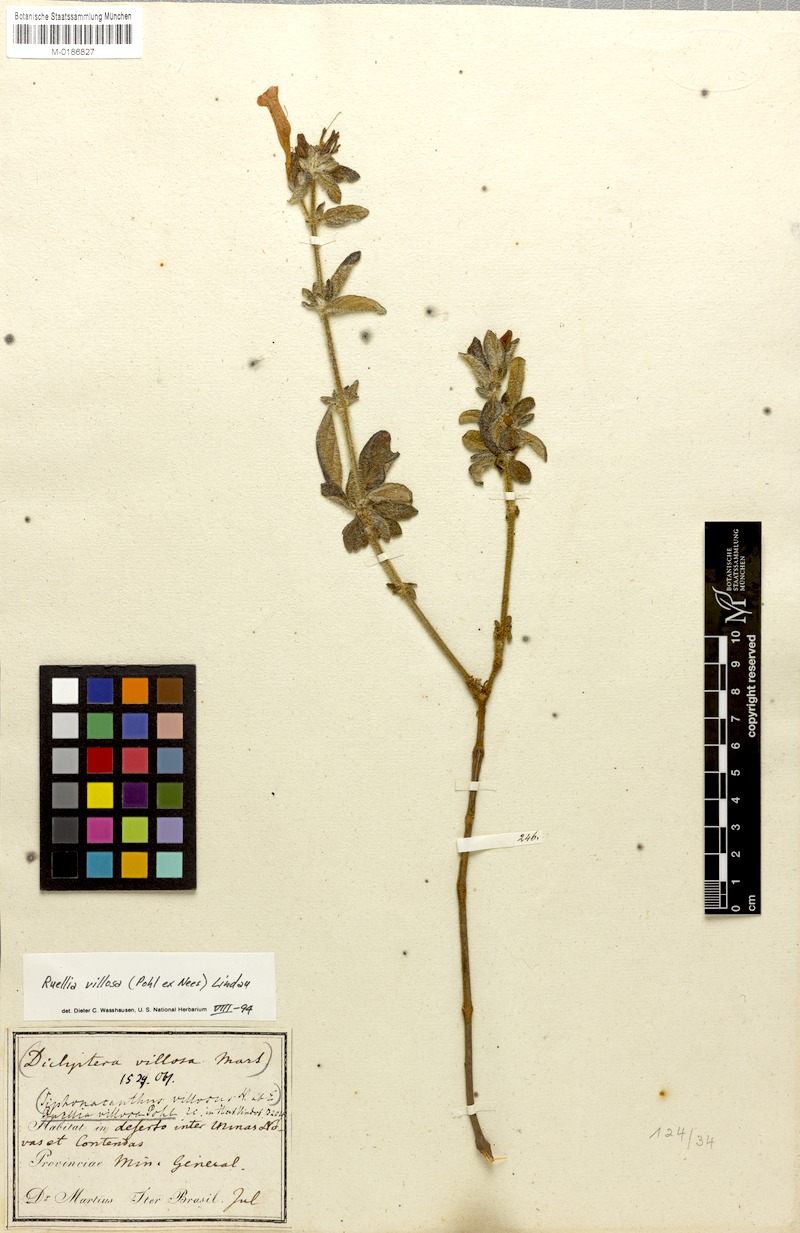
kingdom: Plantae
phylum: Tracheophyta
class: Magnoliopsida
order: Lamiales
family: Acanthaceae
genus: Ruellia
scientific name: Ruellia villosa
